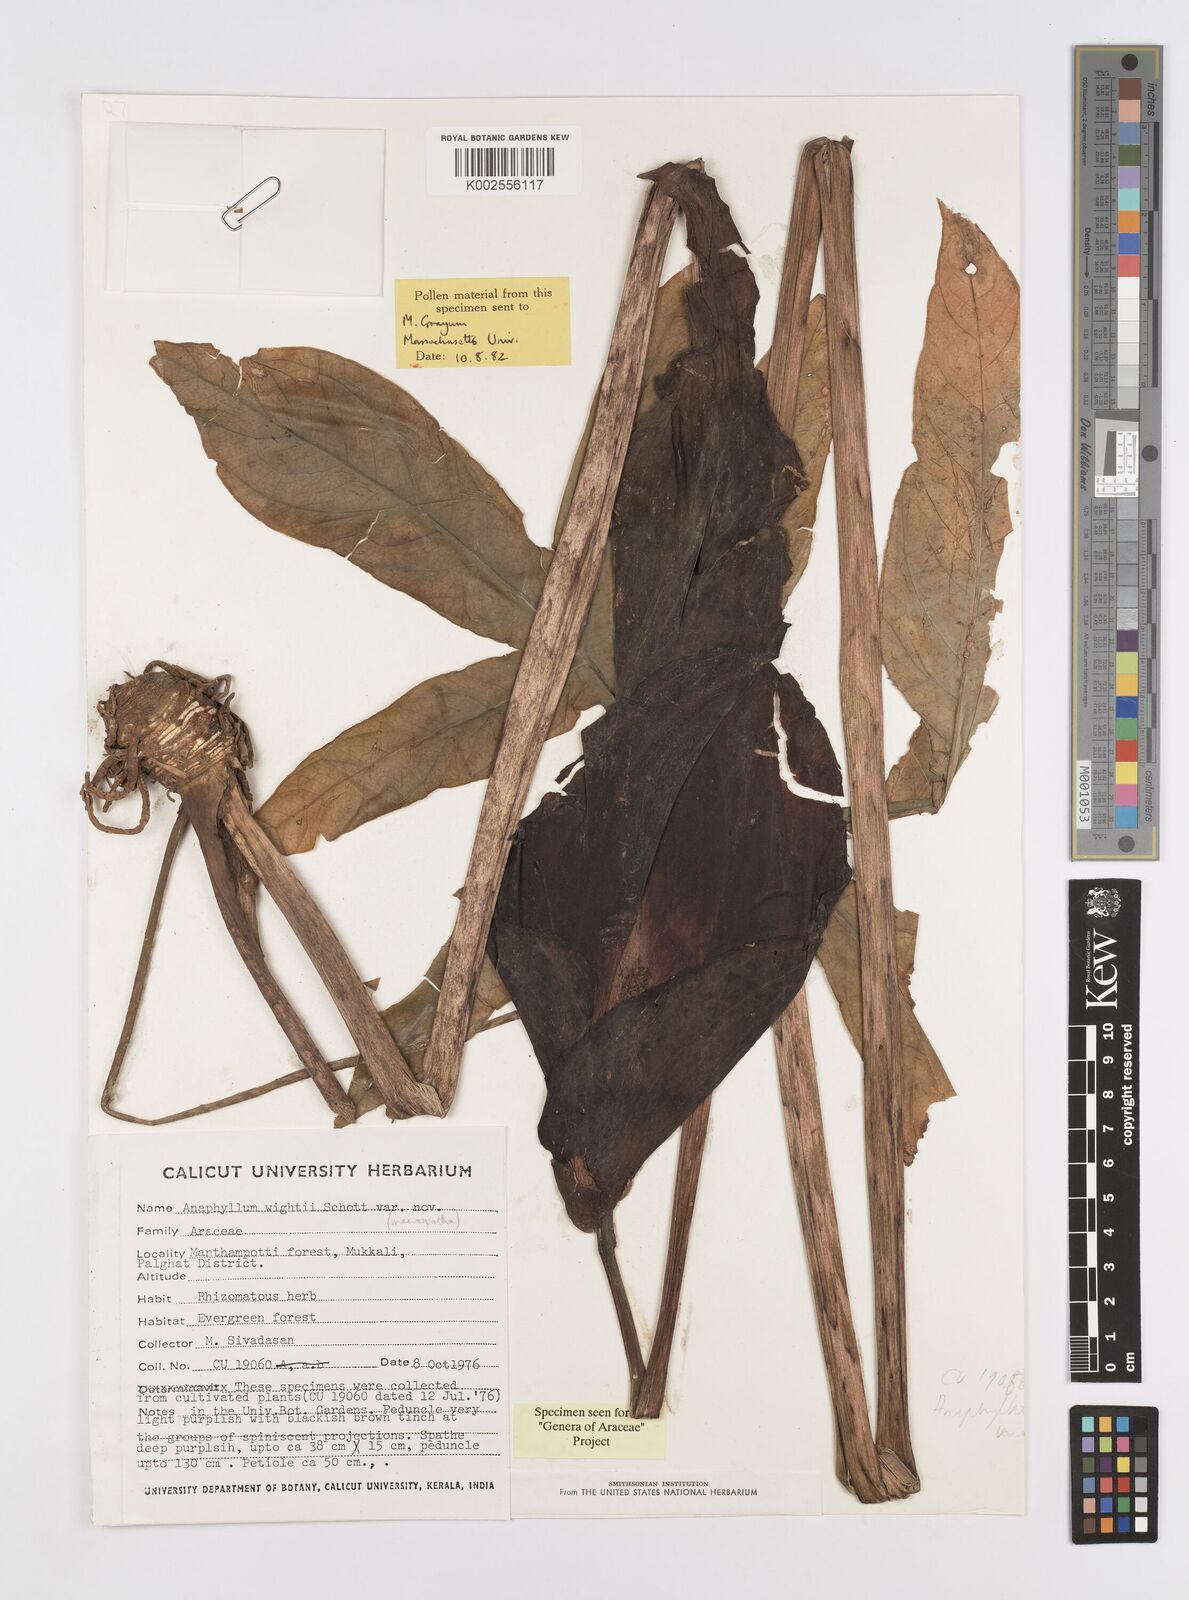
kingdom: Plantae
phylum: Tracheophyta
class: Liliopsida
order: Alismatales
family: Araceae
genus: Anaphyllum
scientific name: Anaphyllum wightii
